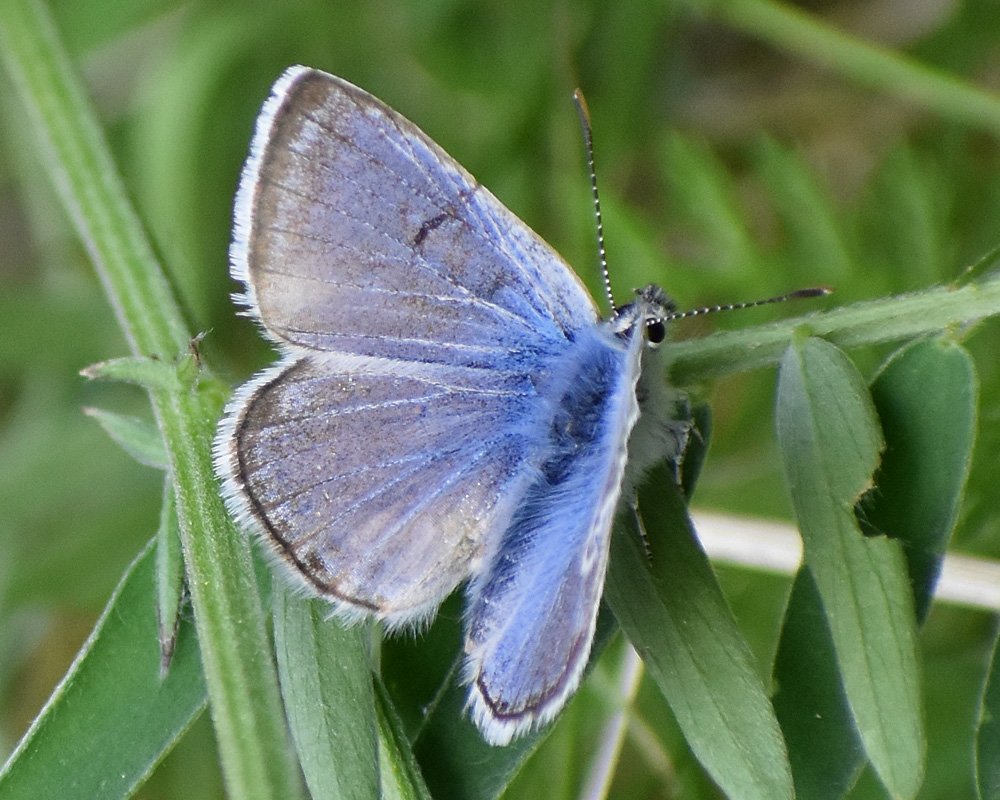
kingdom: Animalia
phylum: Arthropoda
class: Insecta
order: Lepidoptera
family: Lycaenidae
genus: Plebejus
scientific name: Plebejus saepiolus
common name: Greenish Blue
